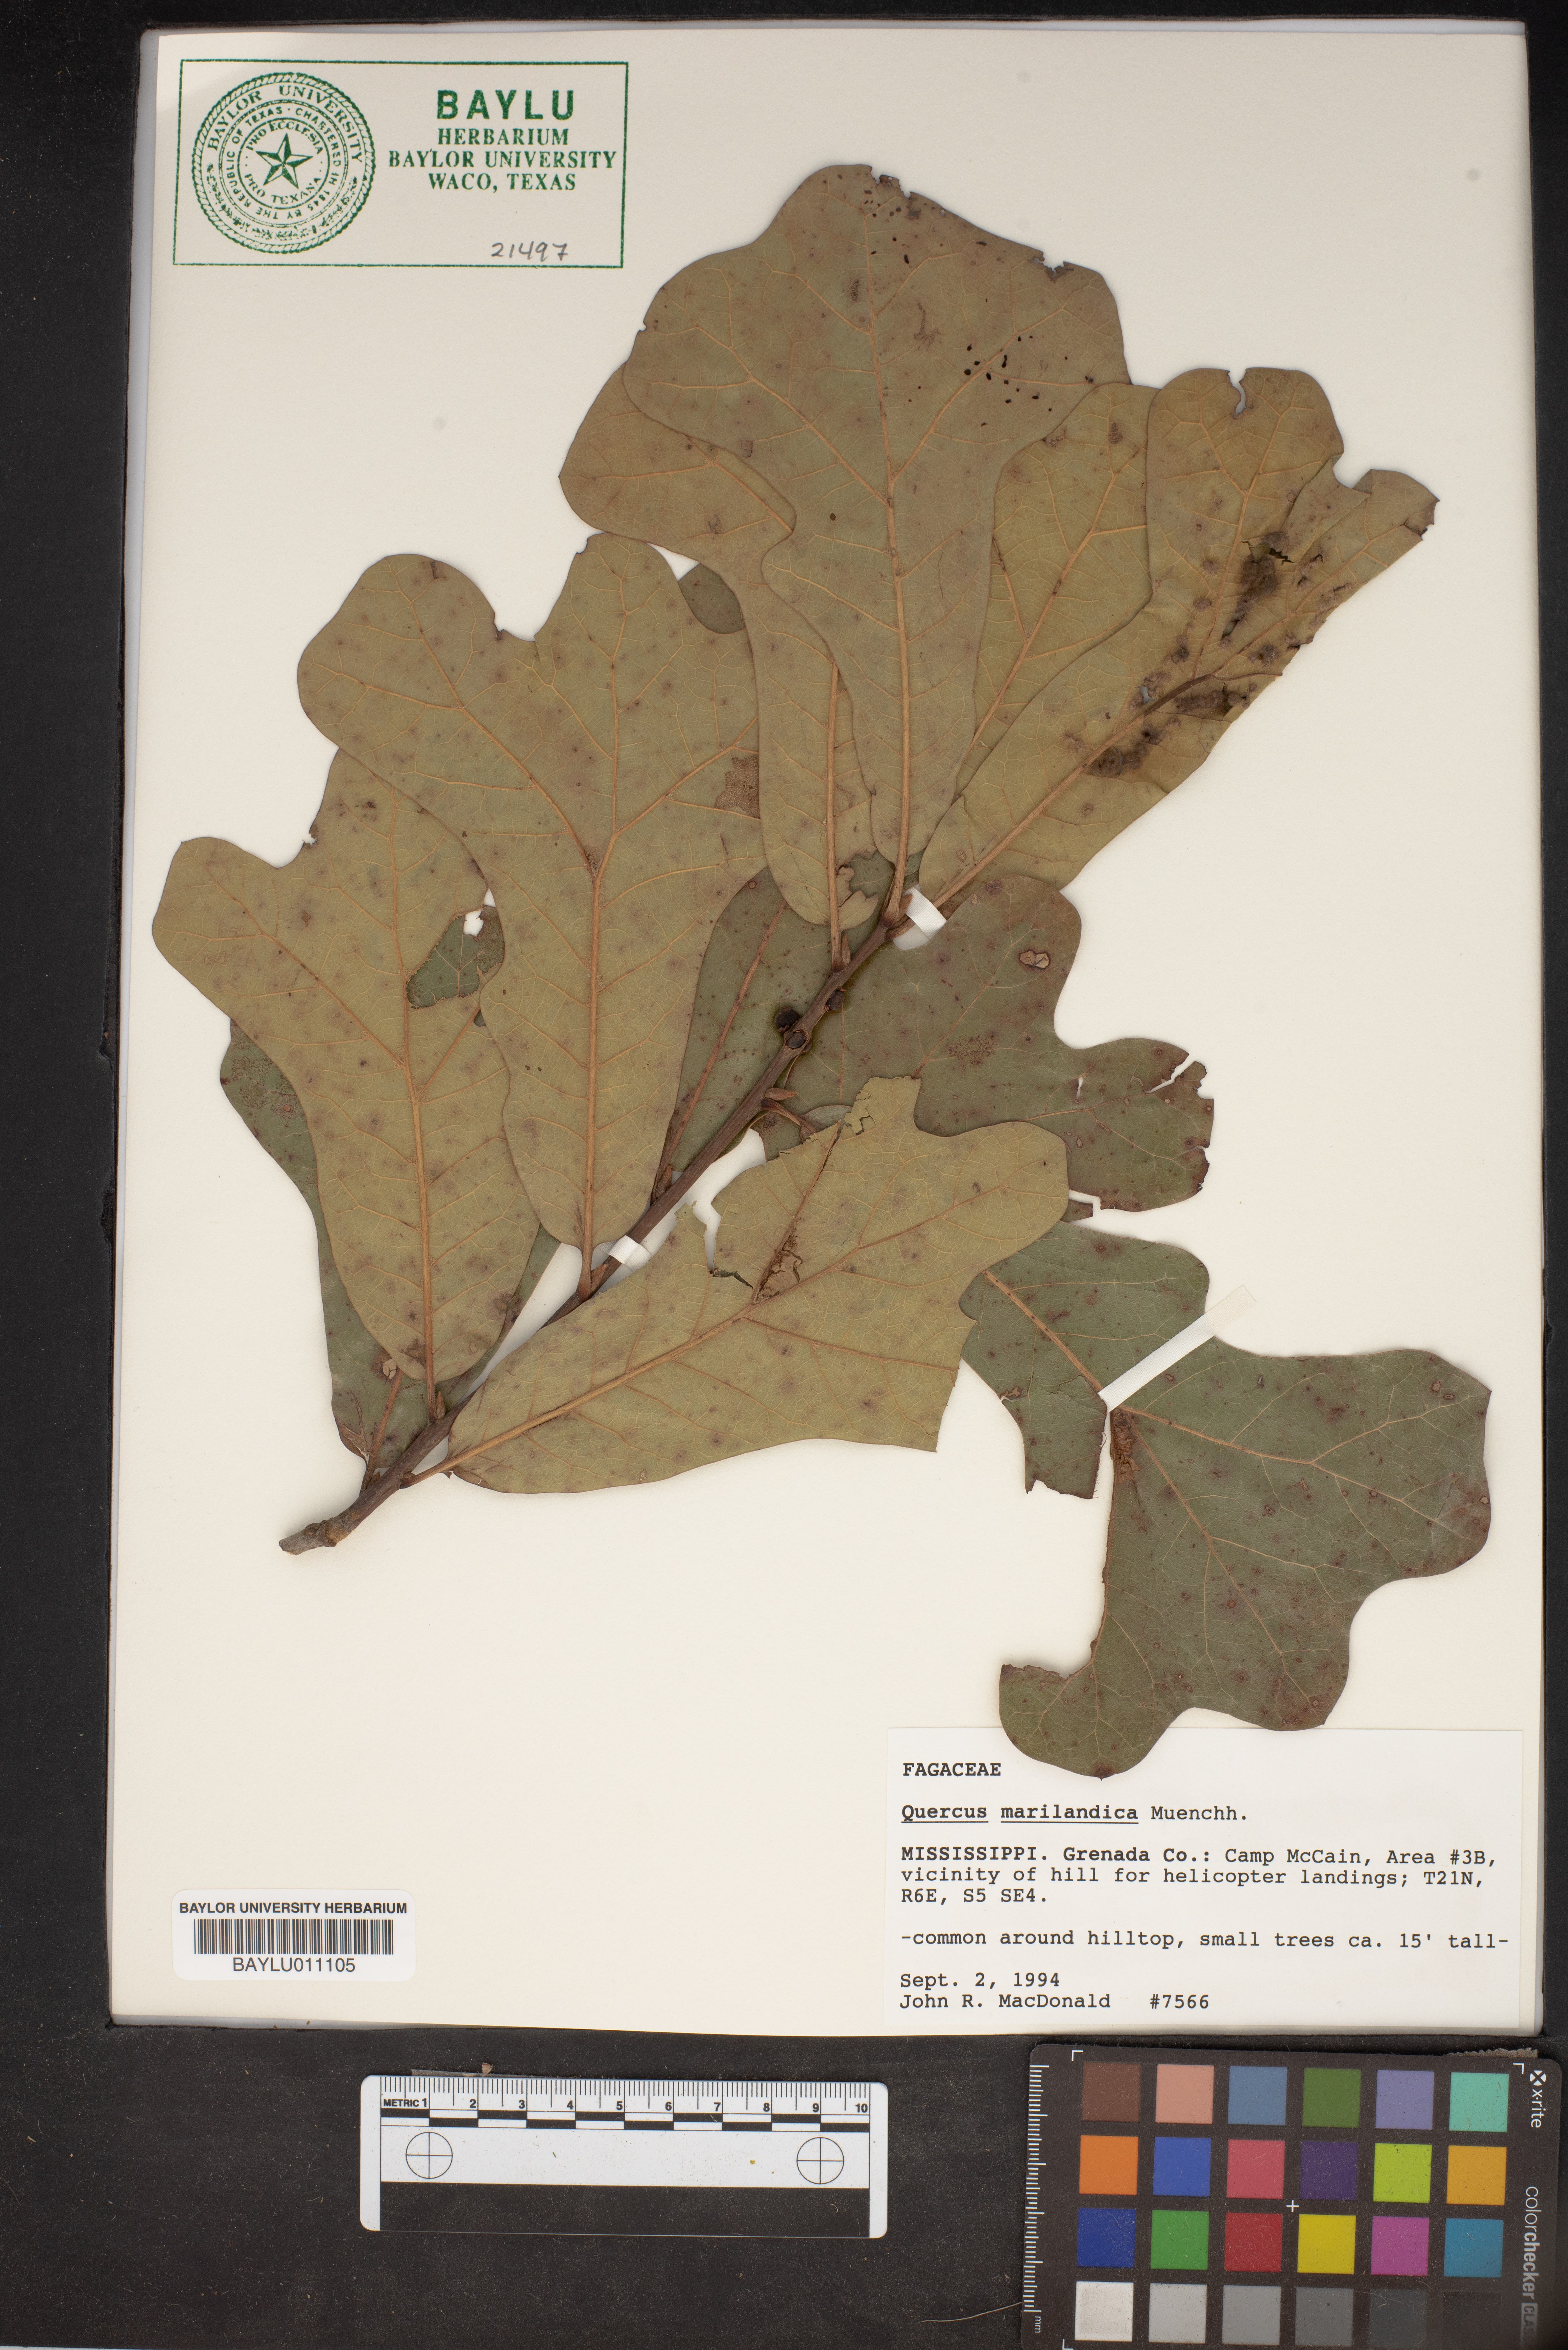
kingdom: Plantae
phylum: Tracheophyta
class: Magnoliopsida
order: Fagales
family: Fagaceae
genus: Quercus
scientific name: Quercus marilandica
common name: Blackjack oak
